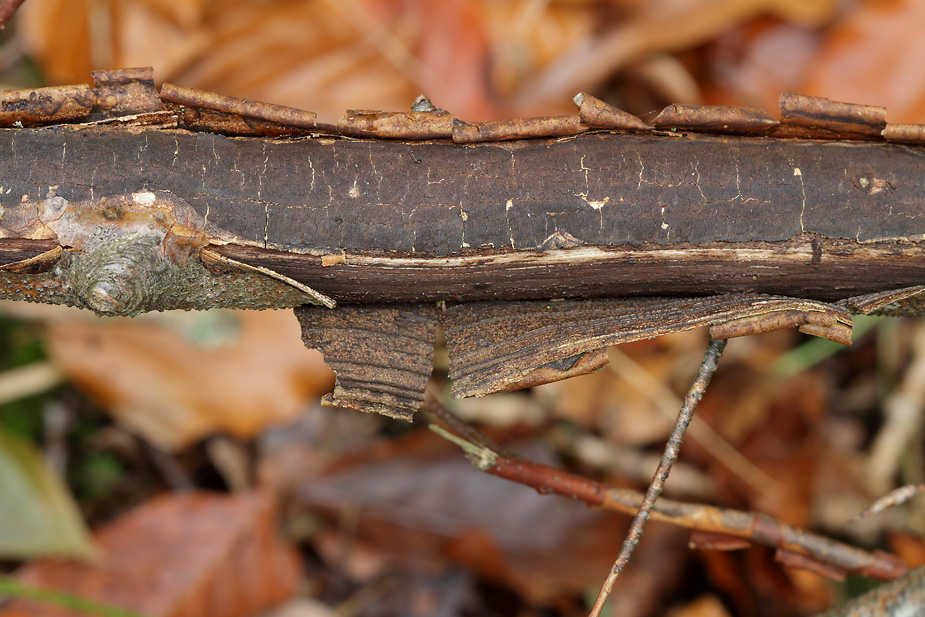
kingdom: Fungi
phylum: Ascomycota
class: Sordariomycetes
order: Xylariales
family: Diatrypaceae
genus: Diatrype
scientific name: Diatrype decorticata
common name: barksprænger-kulskorpe
